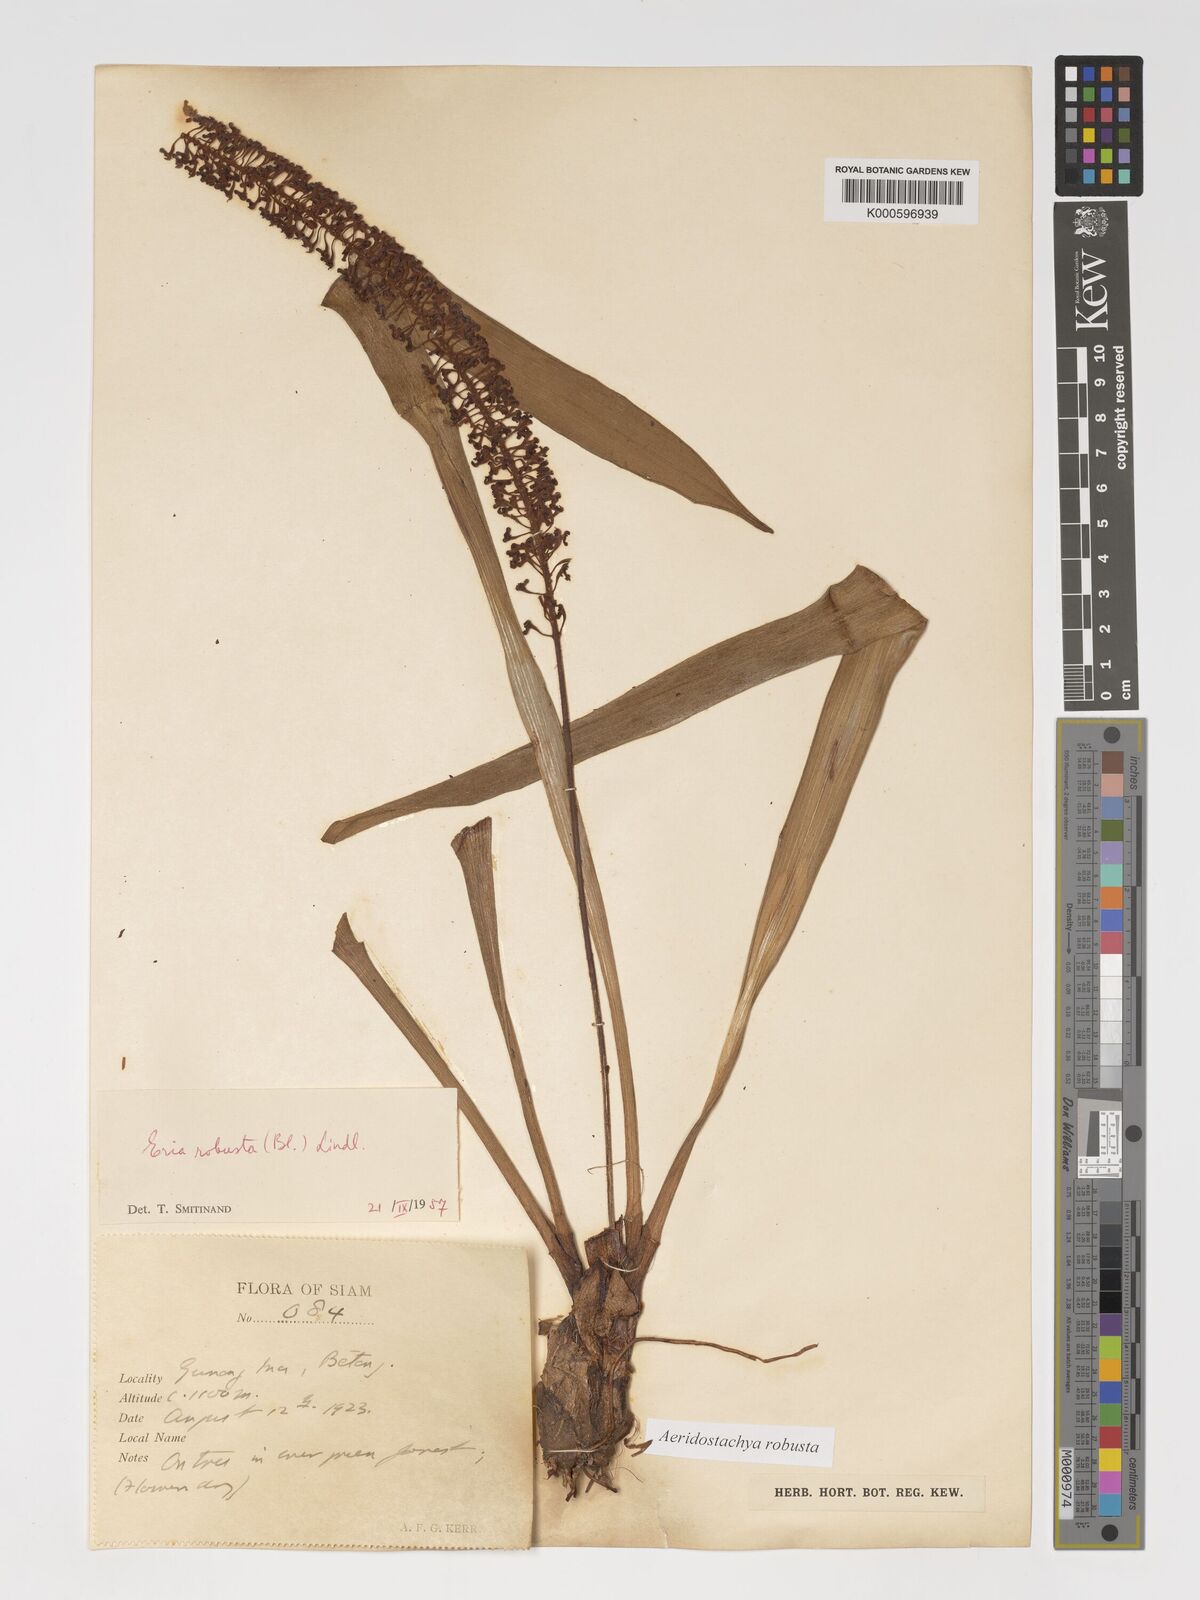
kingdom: Plantae
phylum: Tracheophyta
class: Liliopsida
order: Asparagales
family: Orchidaceae
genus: Aeridostachya
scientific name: Aeridostachya robusta
